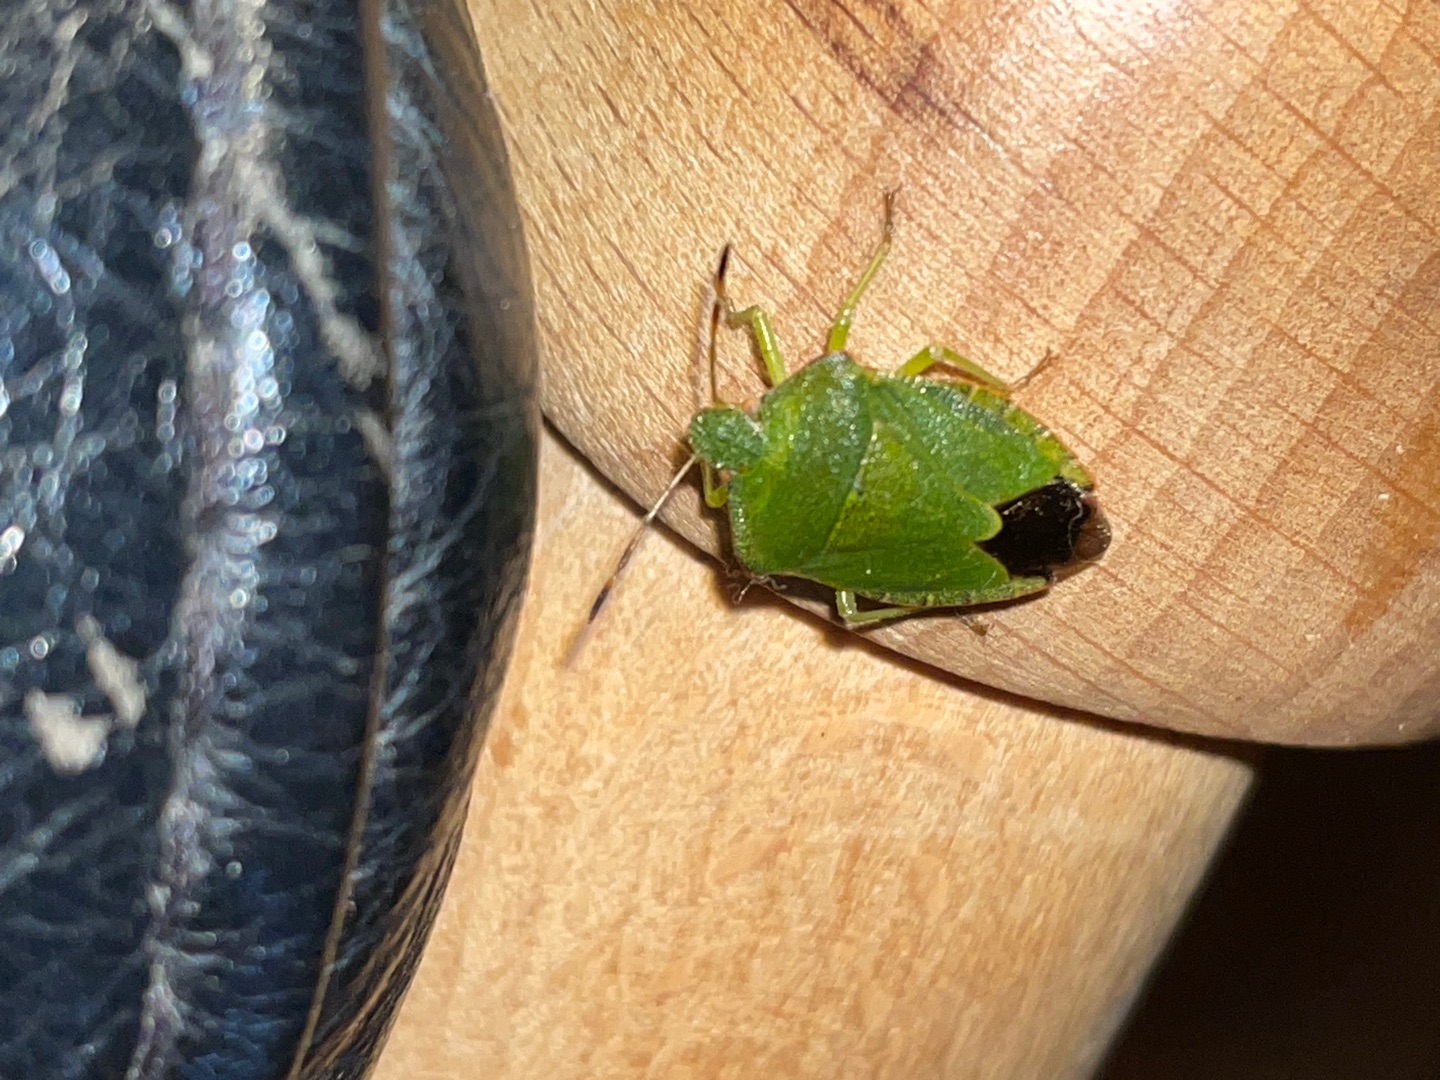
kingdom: Animalia
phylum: Arthropoda
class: Insecta
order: Hemiptera
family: Pentatomidae
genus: Palomena
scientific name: Palomena prasina
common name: Grøn bredtæge
